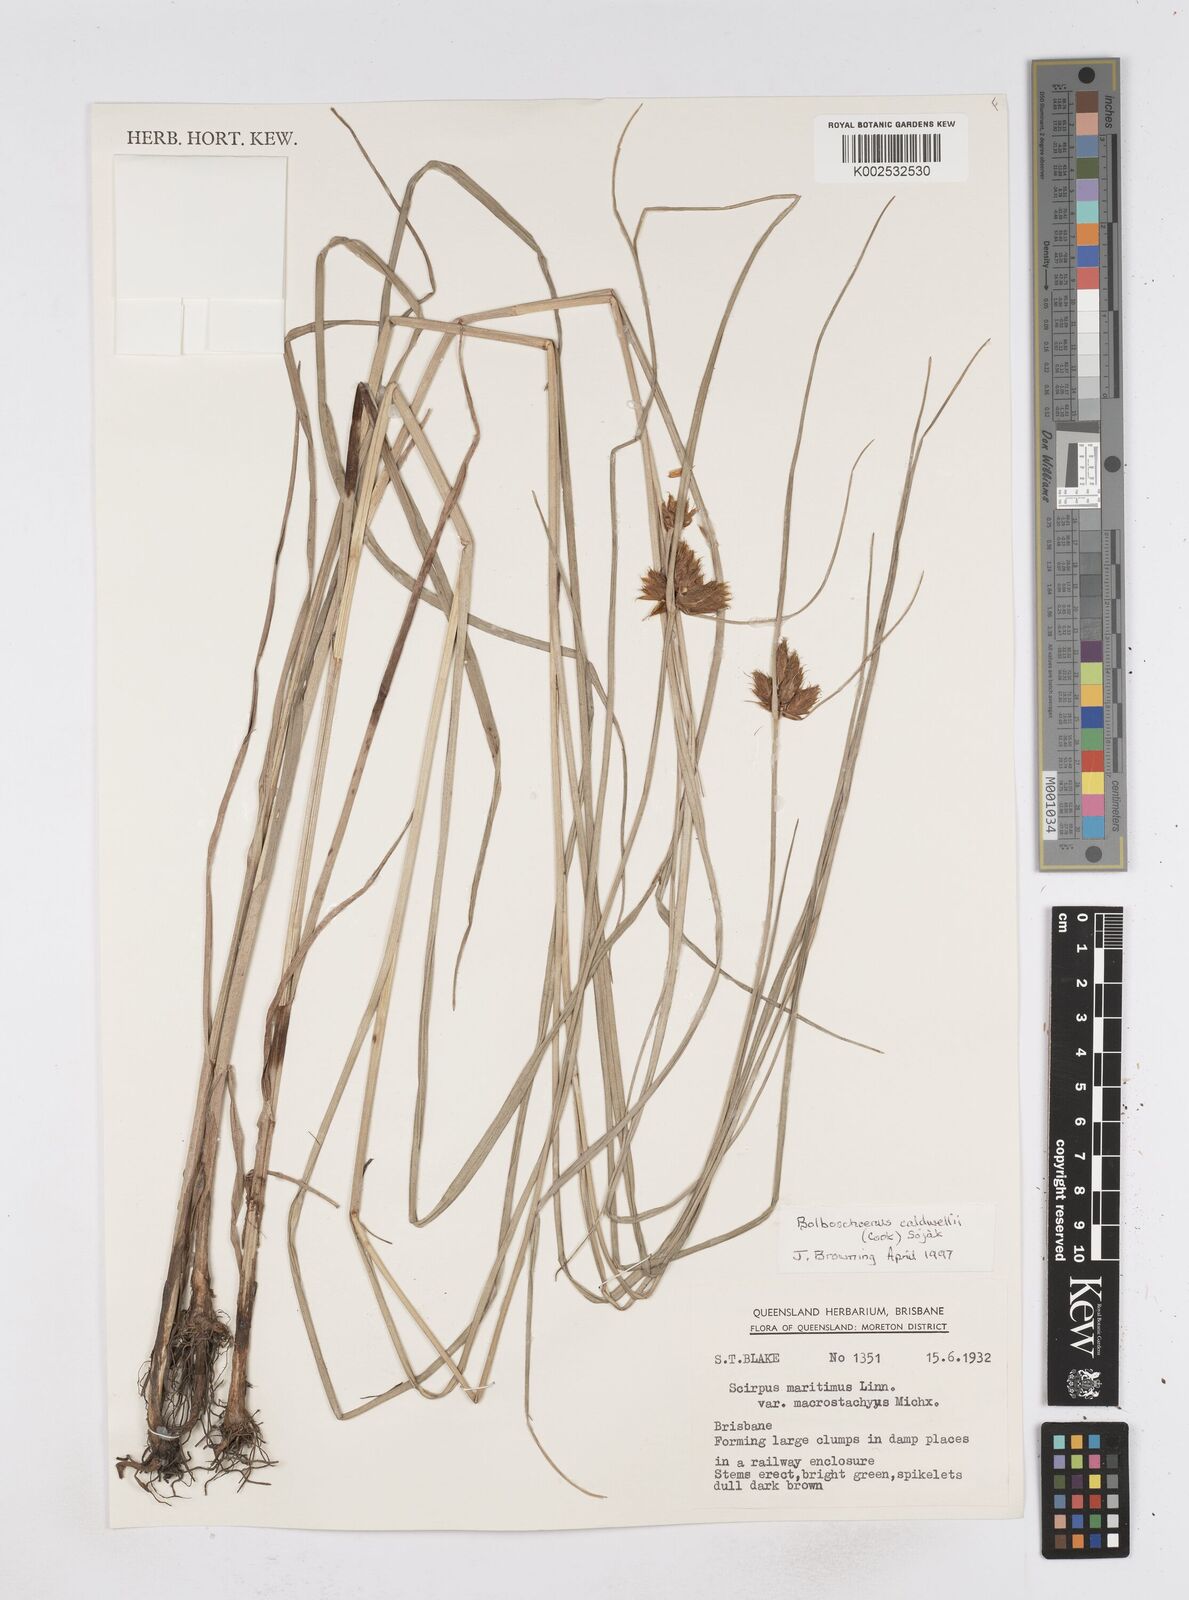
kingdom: Plantae
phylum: Tracheophyta
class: Liliopsida
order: Poales
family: Cyperaceae
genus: Bolboschoenus
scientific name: Bolboschoenus maritimus
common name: Sea club-rush
